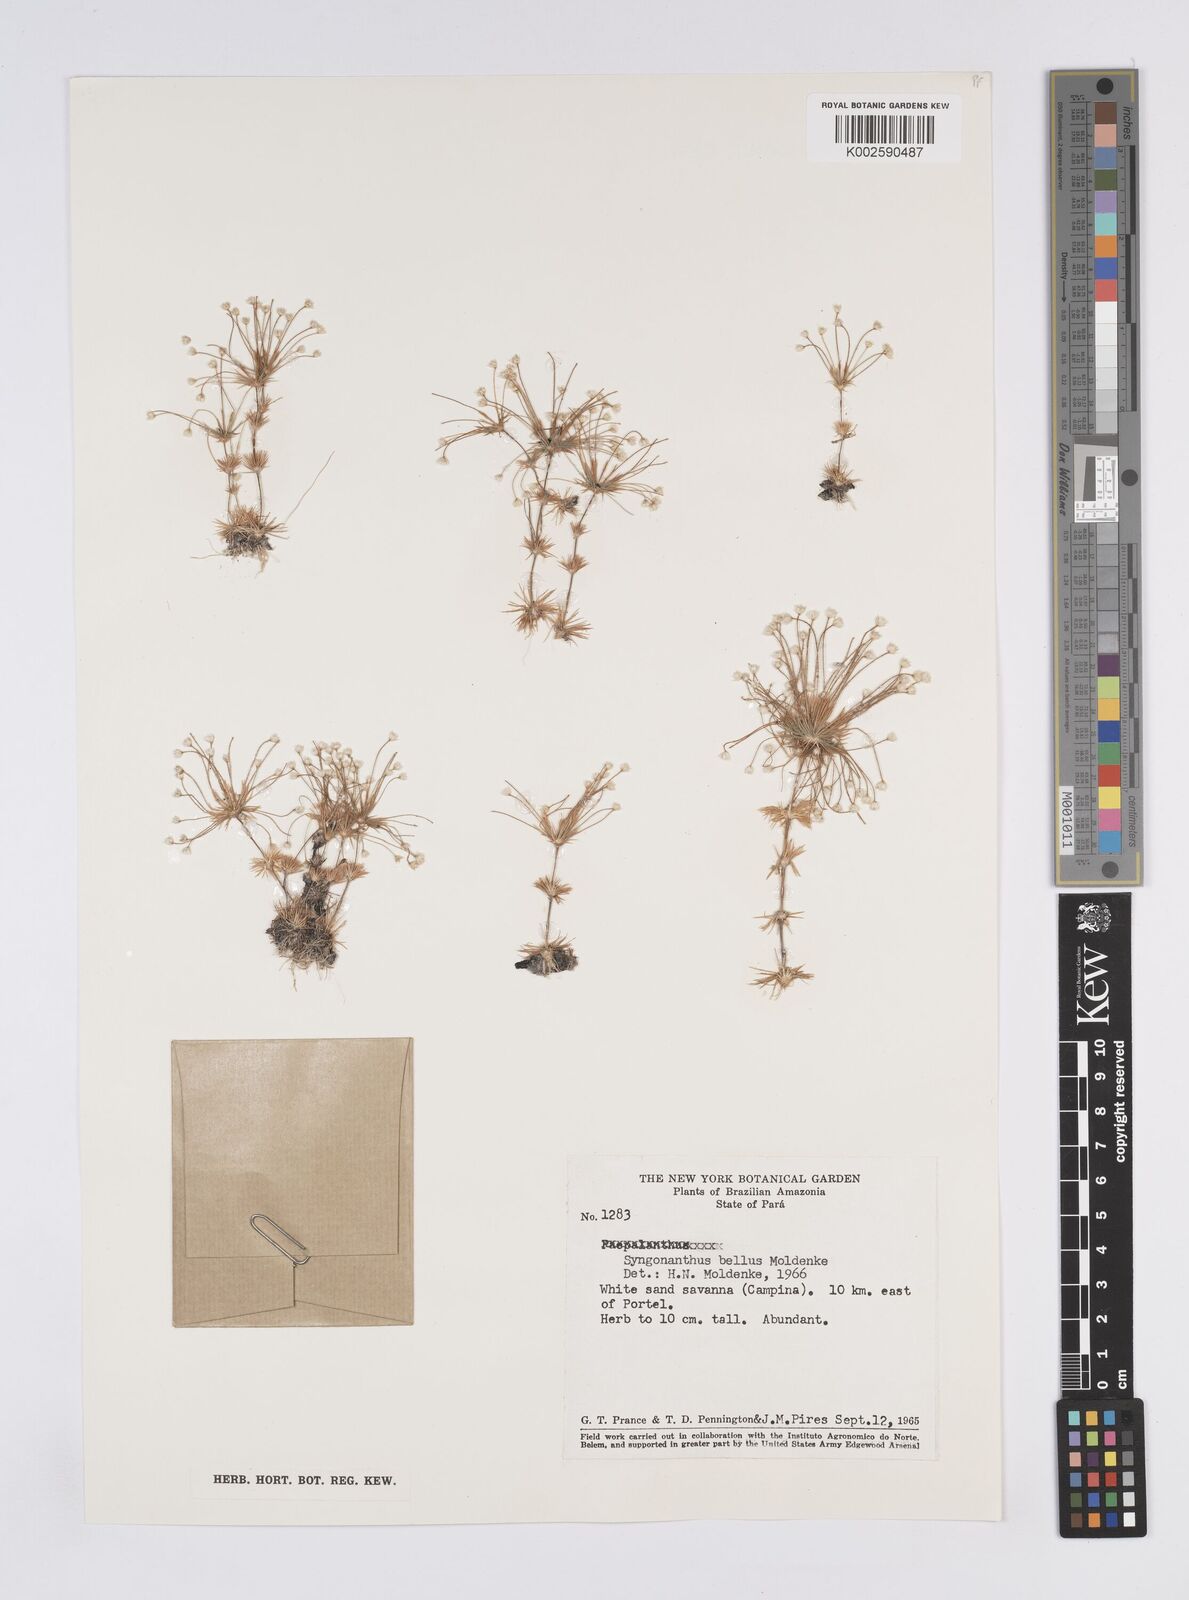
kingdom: Plantae
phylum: Tracheophyta
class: Liliopsida
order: Poales
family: Eriocaulaceae
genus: Syngonanthus
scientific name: Syngonanthus bellus
